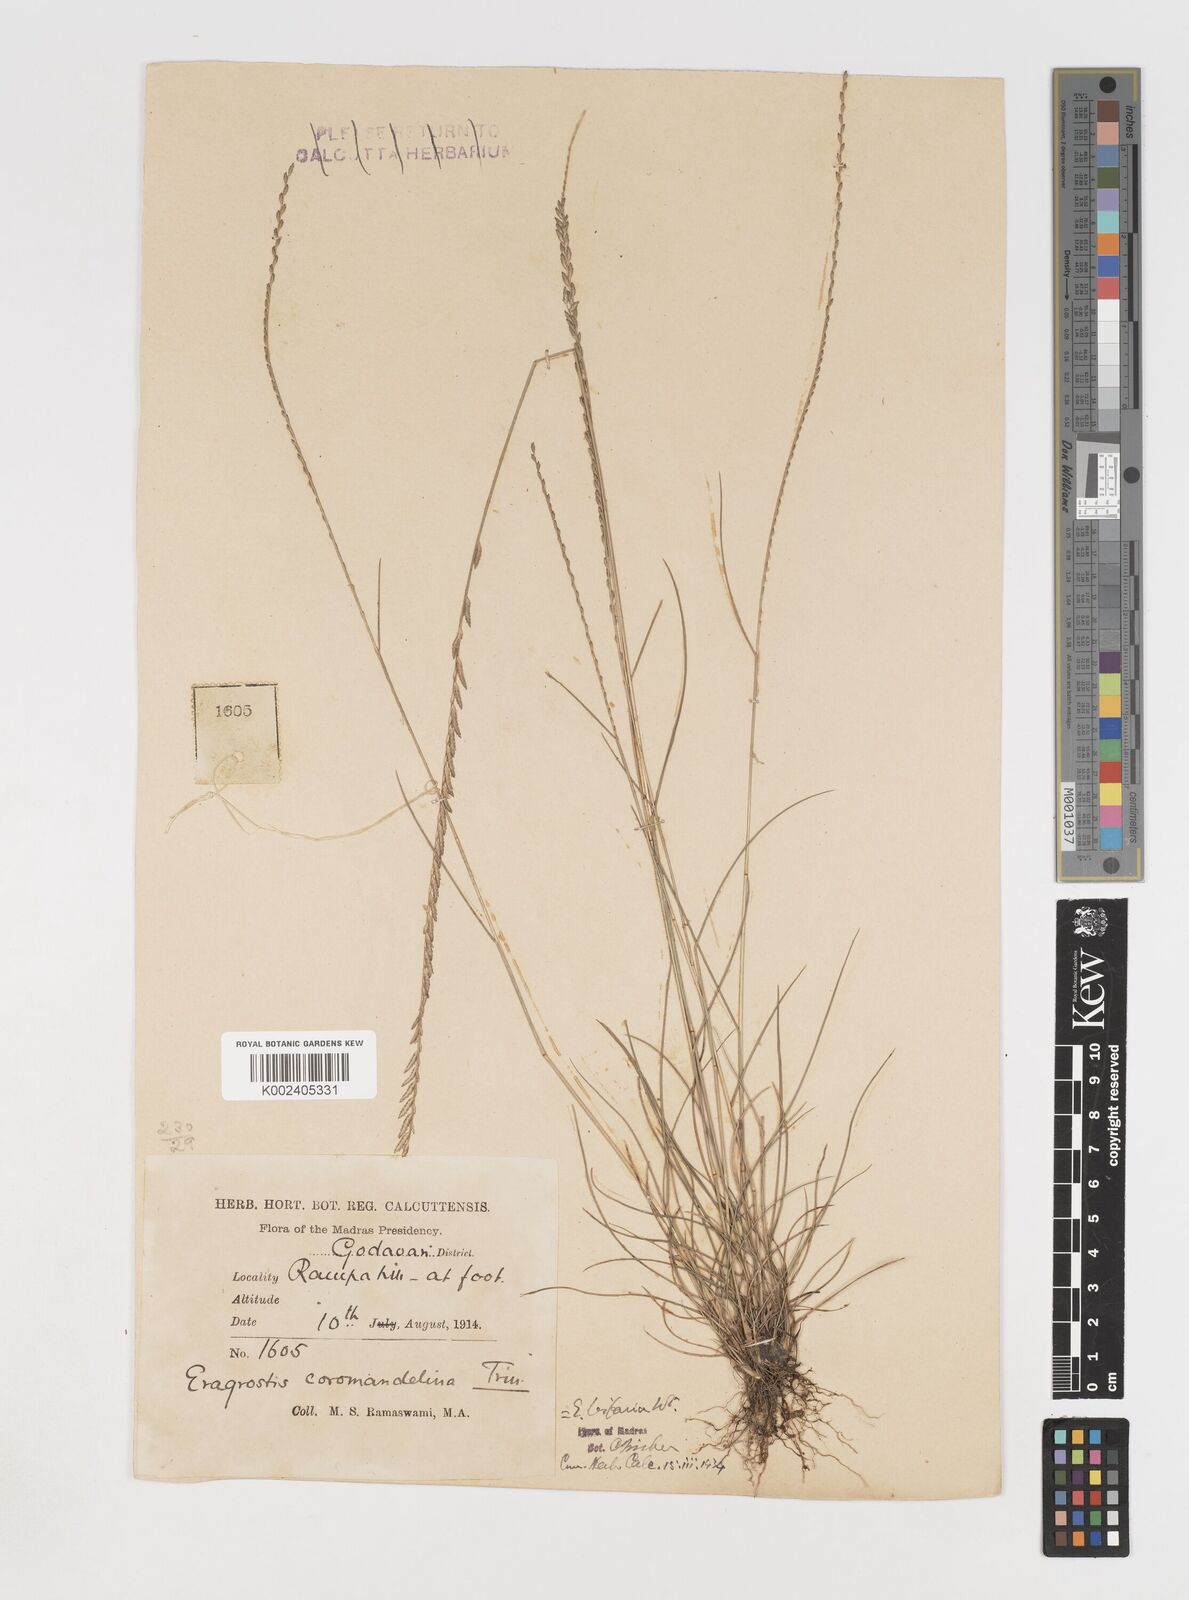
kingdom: Plantae
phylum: Tracheophyta
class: Liliopsida
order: Poales
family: Poaceae
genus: Eragrostiella
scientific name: Eragrostiella bifaria
